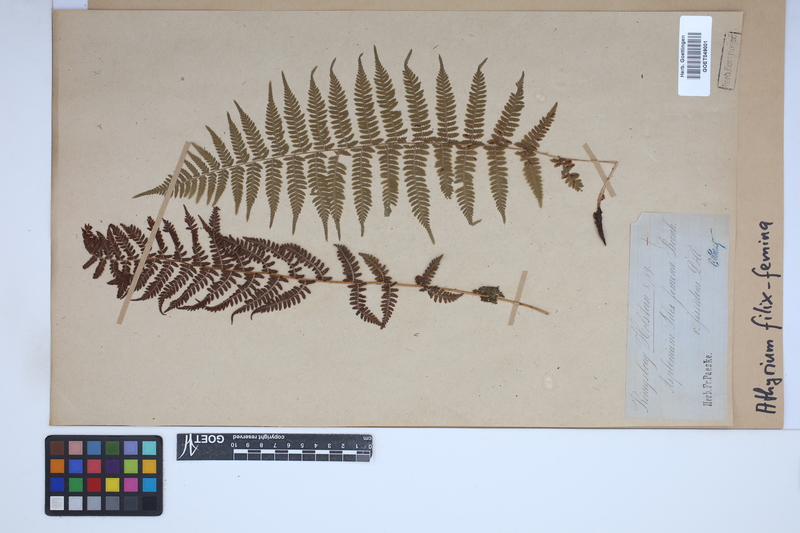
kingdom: Plantae
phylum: Tracheophyta
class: Polypodiopsida
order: Polypodiales
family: Athyriaceae
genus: Athyrium
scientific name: Athyrium filix-femina
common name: Lady fern
